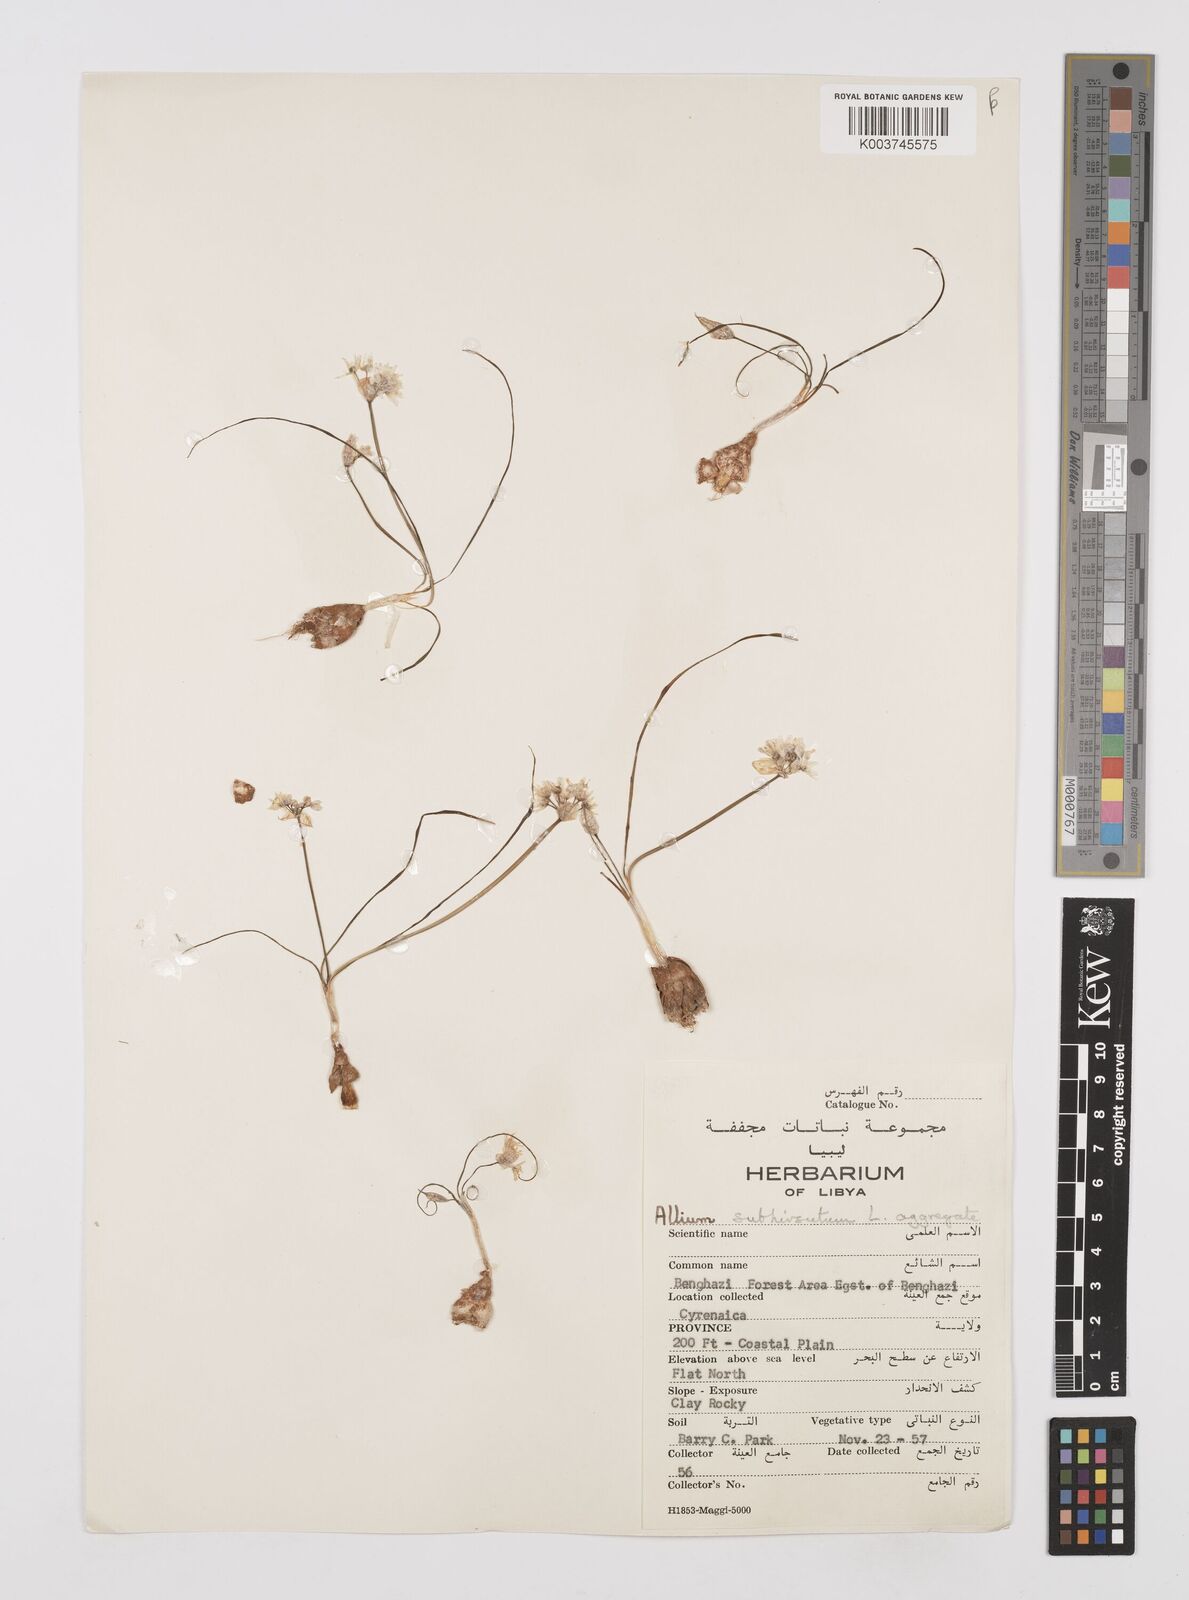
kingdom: Plantae
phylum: Tracheophyta
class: Liliopsida
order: Asparagales
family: Amaryllidaceae
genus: Allium
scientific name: Allium ruhmerianum
